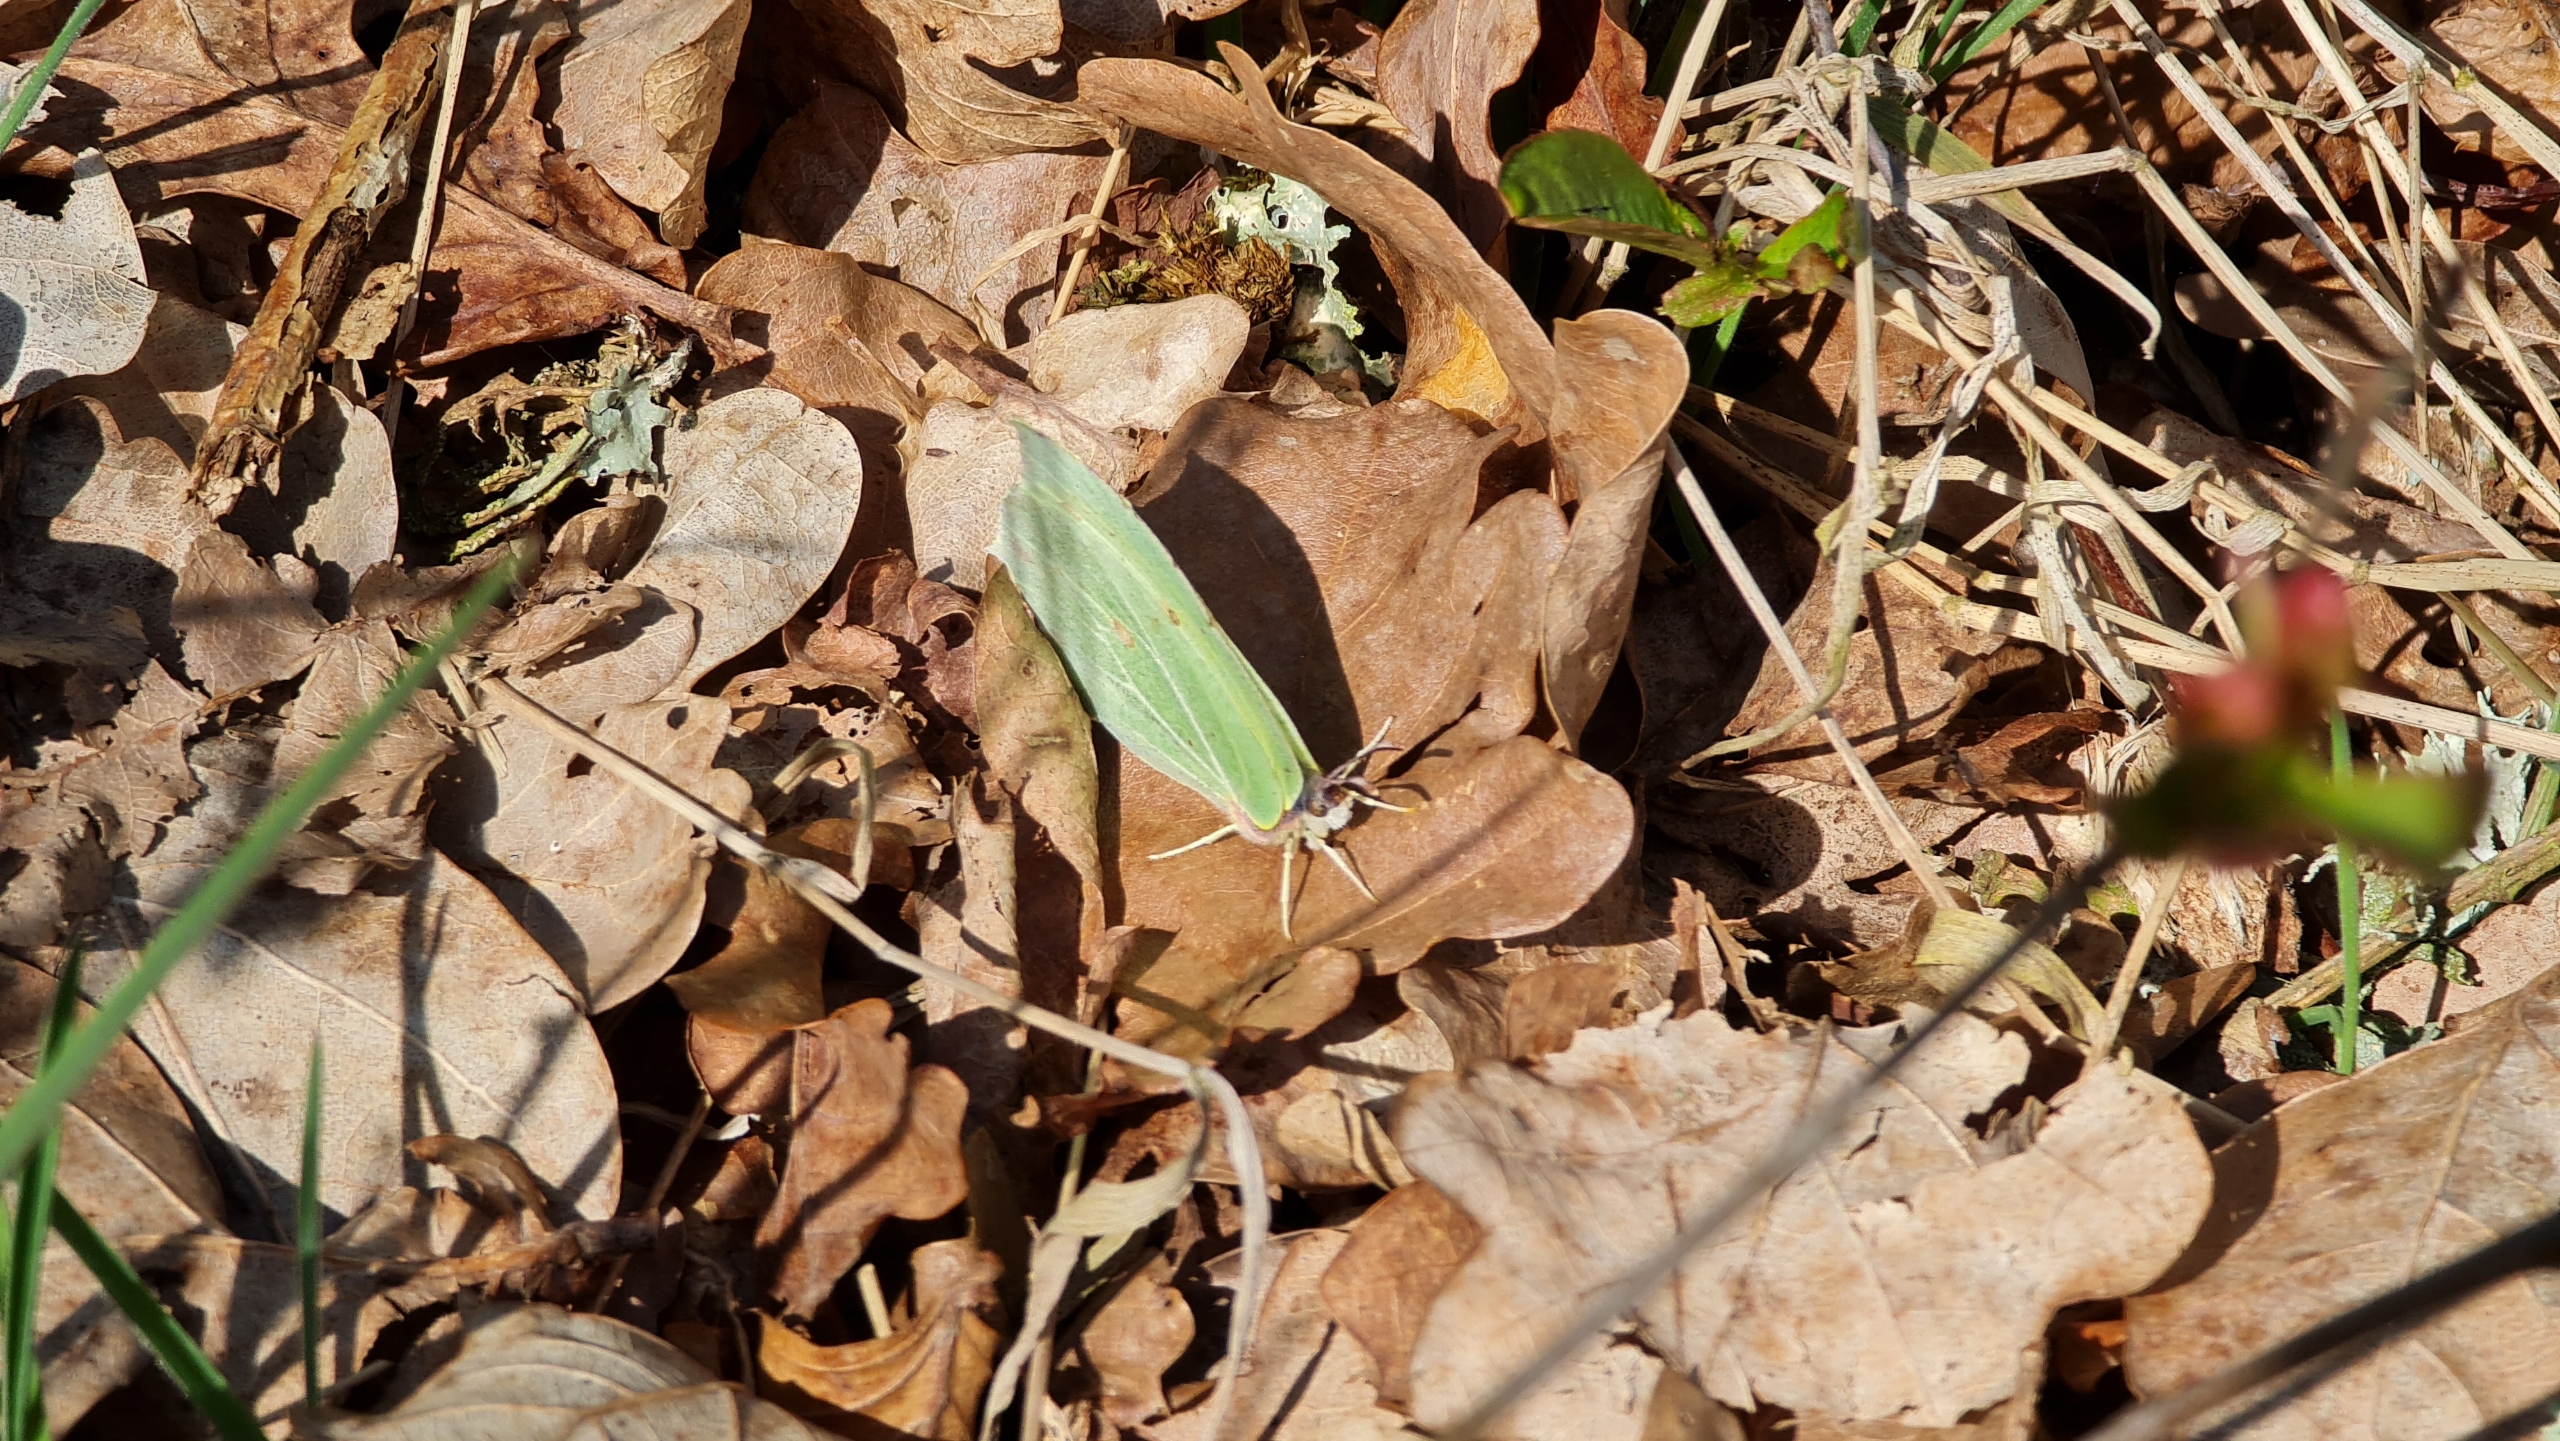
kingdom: Animalia
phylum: Arthropoda
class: Insecta
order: Lepidoptera
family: Pieridae
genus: Gonepteryx
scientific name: Gonepteryx rhamni
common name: Citronsommerfugl
